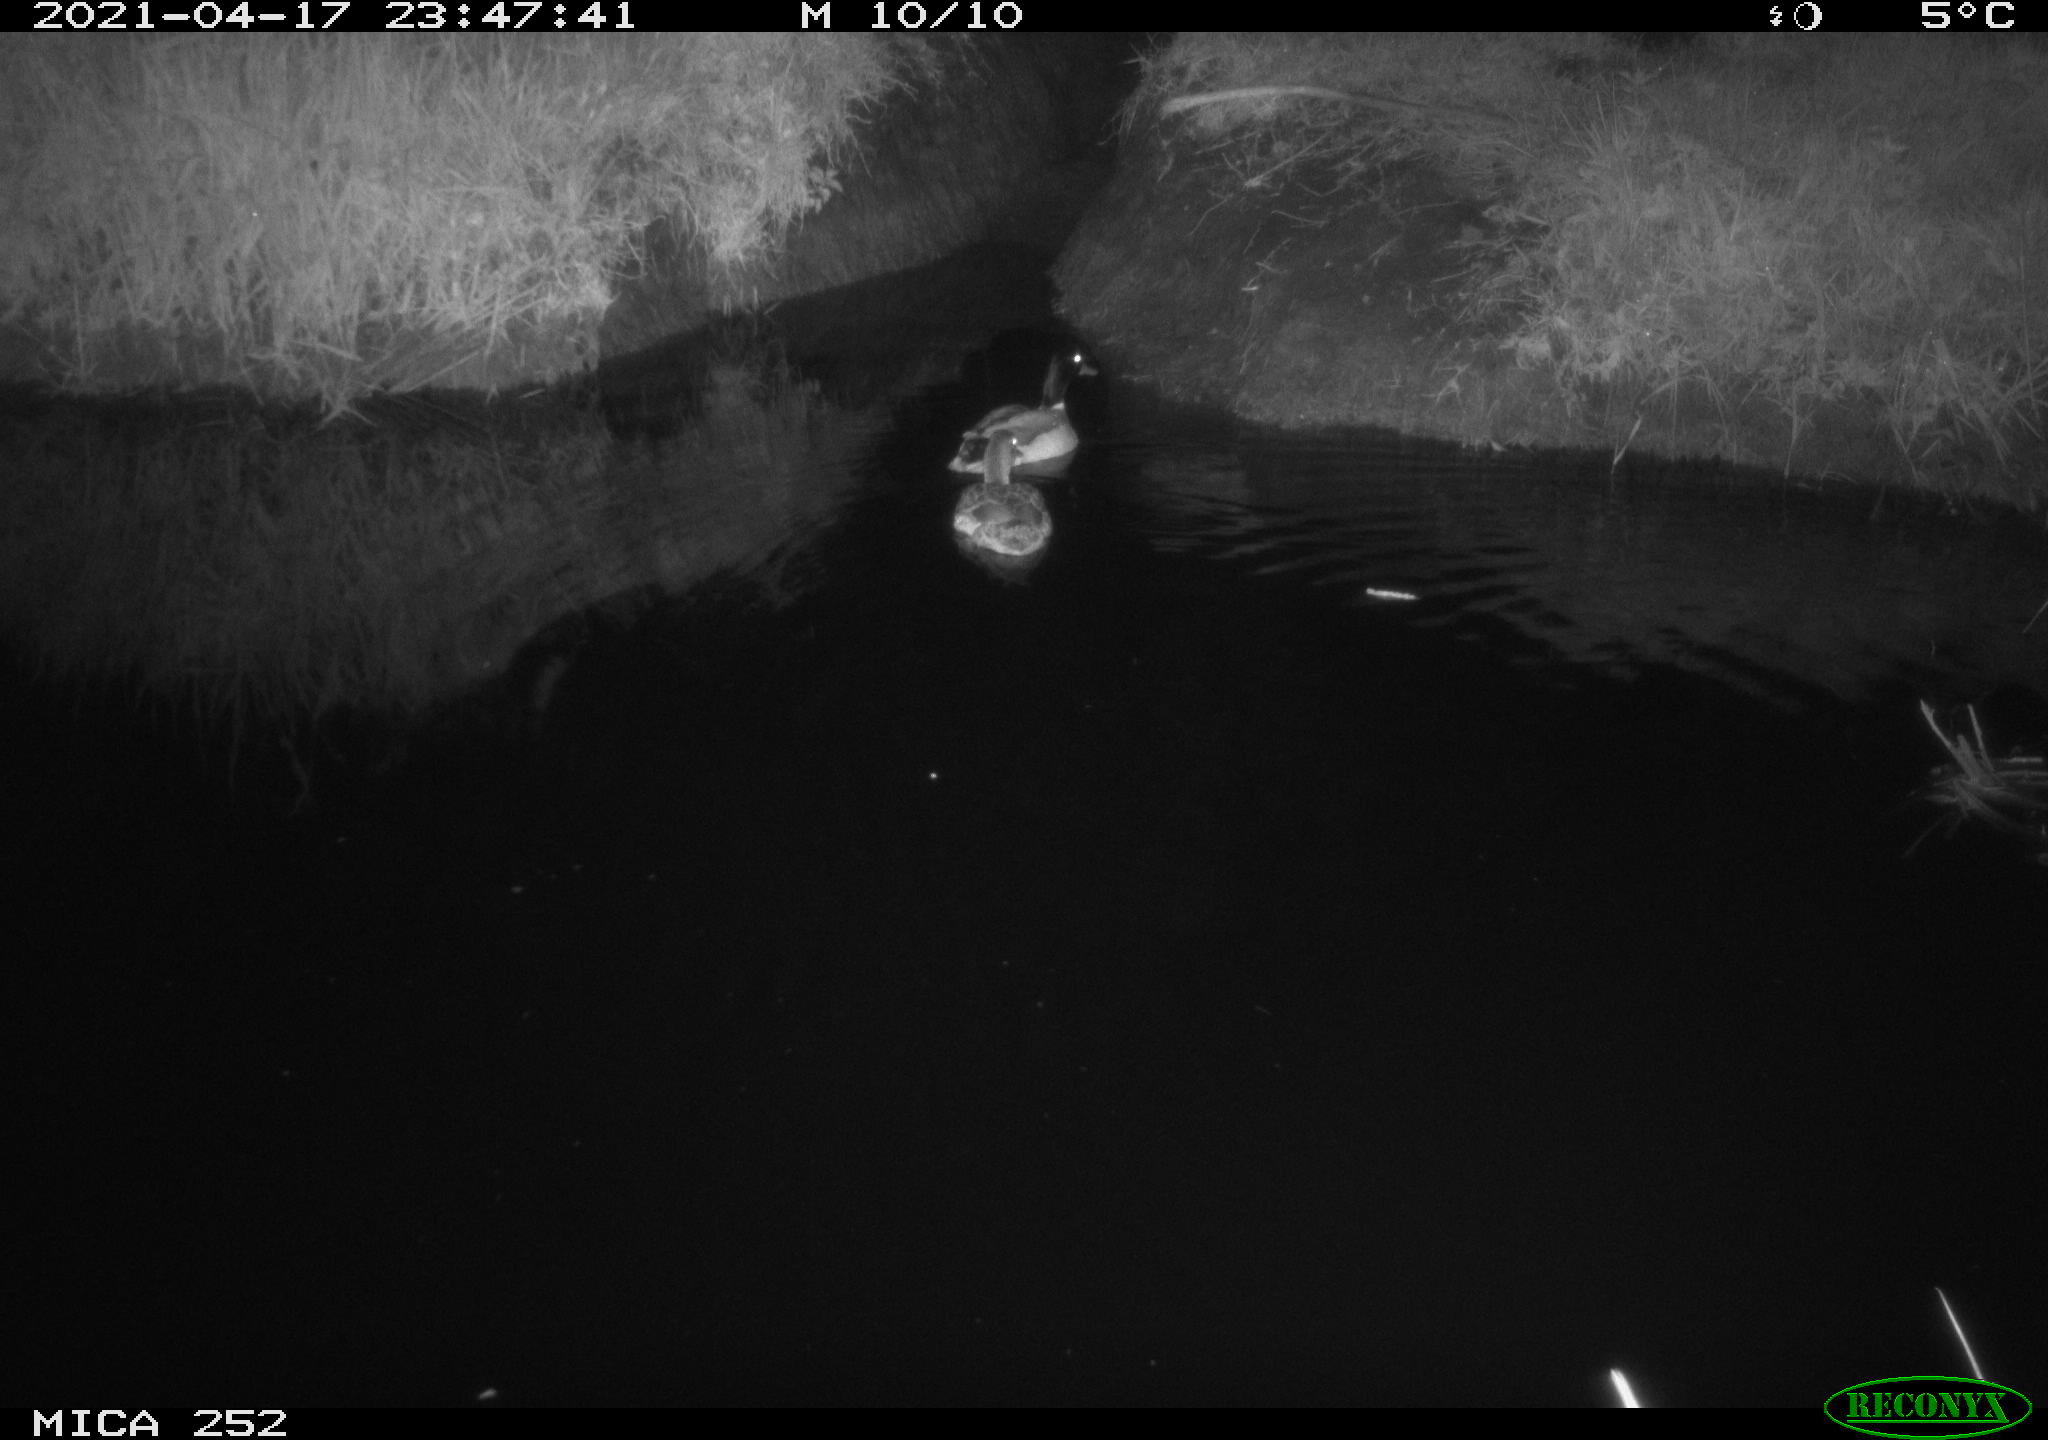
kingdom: Animalia
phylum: Chordata
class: Aves
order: Anseriformes
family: Anatidae
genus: Anas
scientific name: Anas platyrhynchos
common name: Mallard
